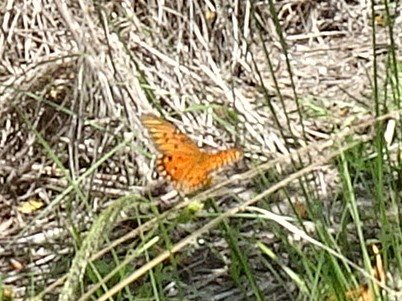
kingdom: Animalia
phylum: Arthropoda
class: Insecta
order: Lepidoptera
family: Nymphalidae
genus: Dione
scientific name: Dione vanillae
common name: Gulf Fritillary
